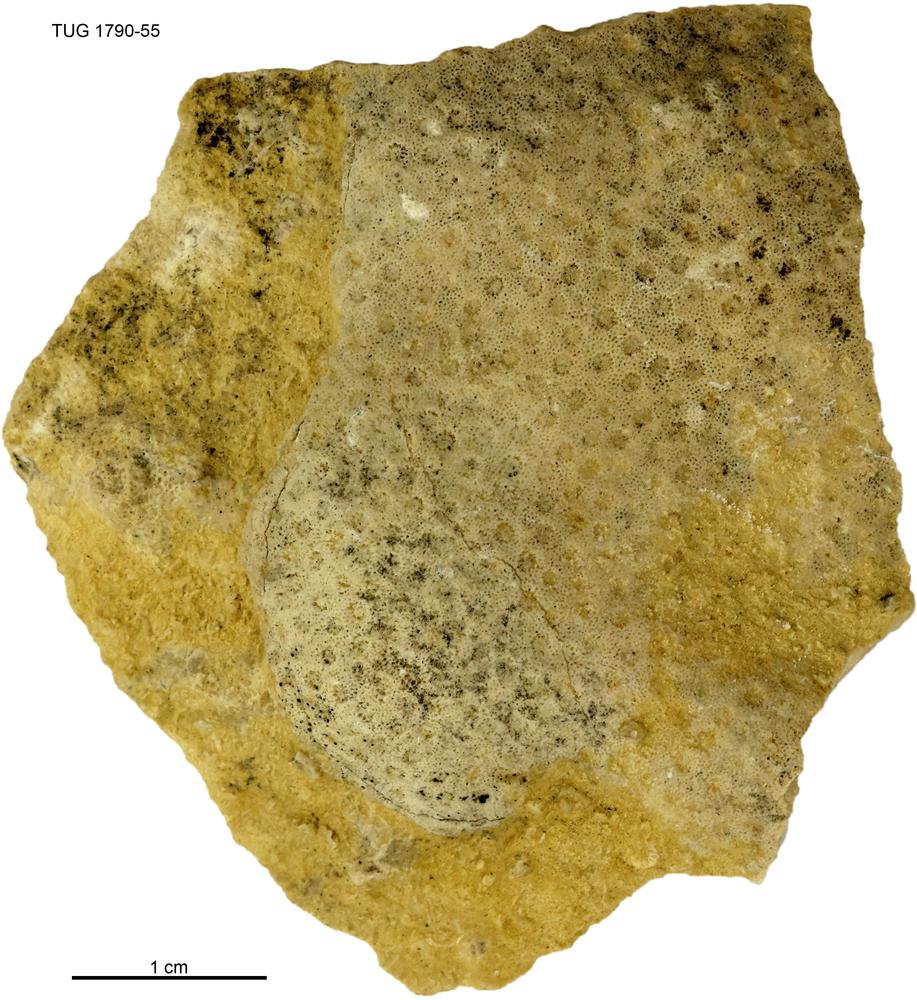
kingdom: Animalia
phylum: Cnidaria
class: Anthozoa
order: Heliolitina
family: Heliolitidae
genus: Heliolites
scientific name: Heliolites
